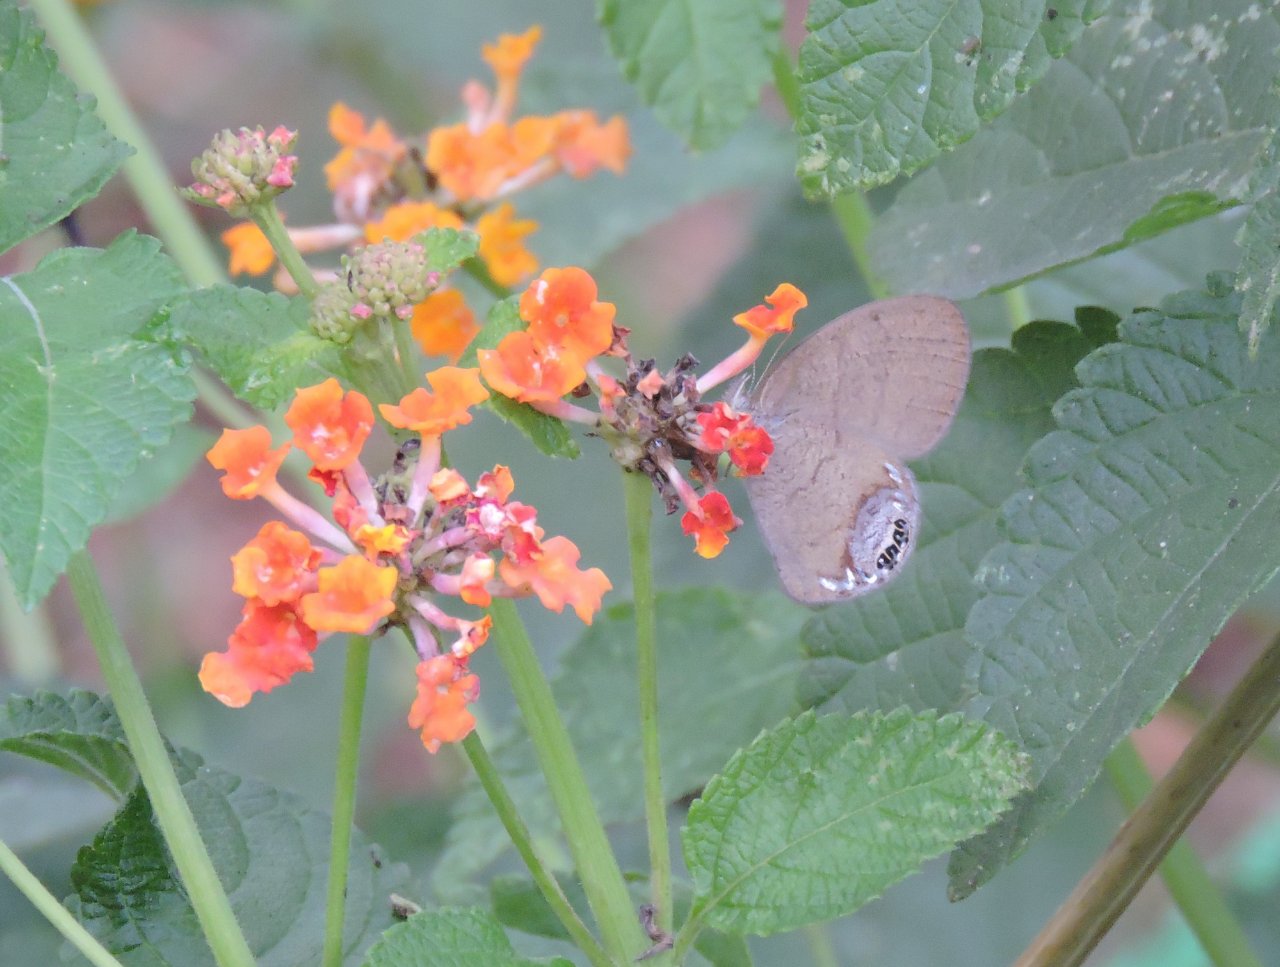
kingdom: Animalia
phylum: Arthropoda
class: Insecta
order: Lepidoptera
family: Nymphalidae
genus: Euptychia
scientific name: Euptychia cornelius
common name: Gemmed Satyr
